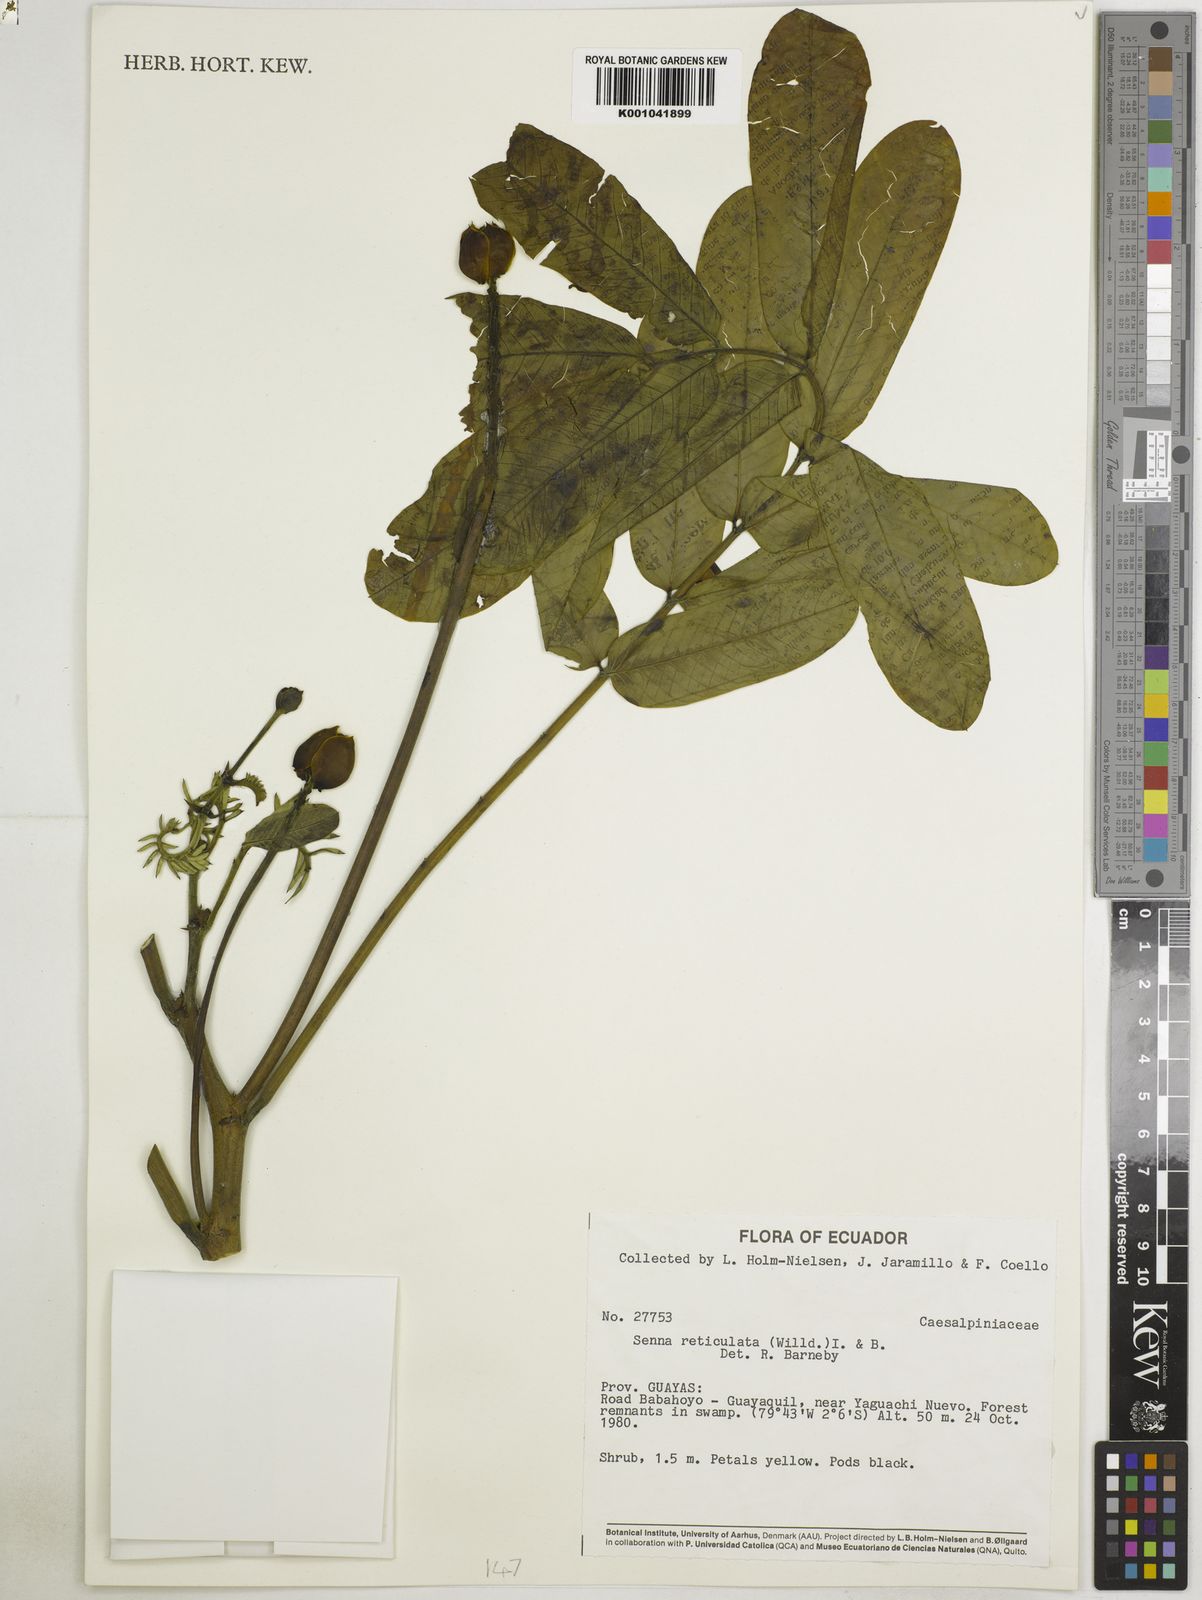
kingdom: Plantae
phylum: Tracheophyta
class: Magnoliopsida
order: Fabales
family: Fabaceae
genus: Senna
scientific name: Senna reticulata
